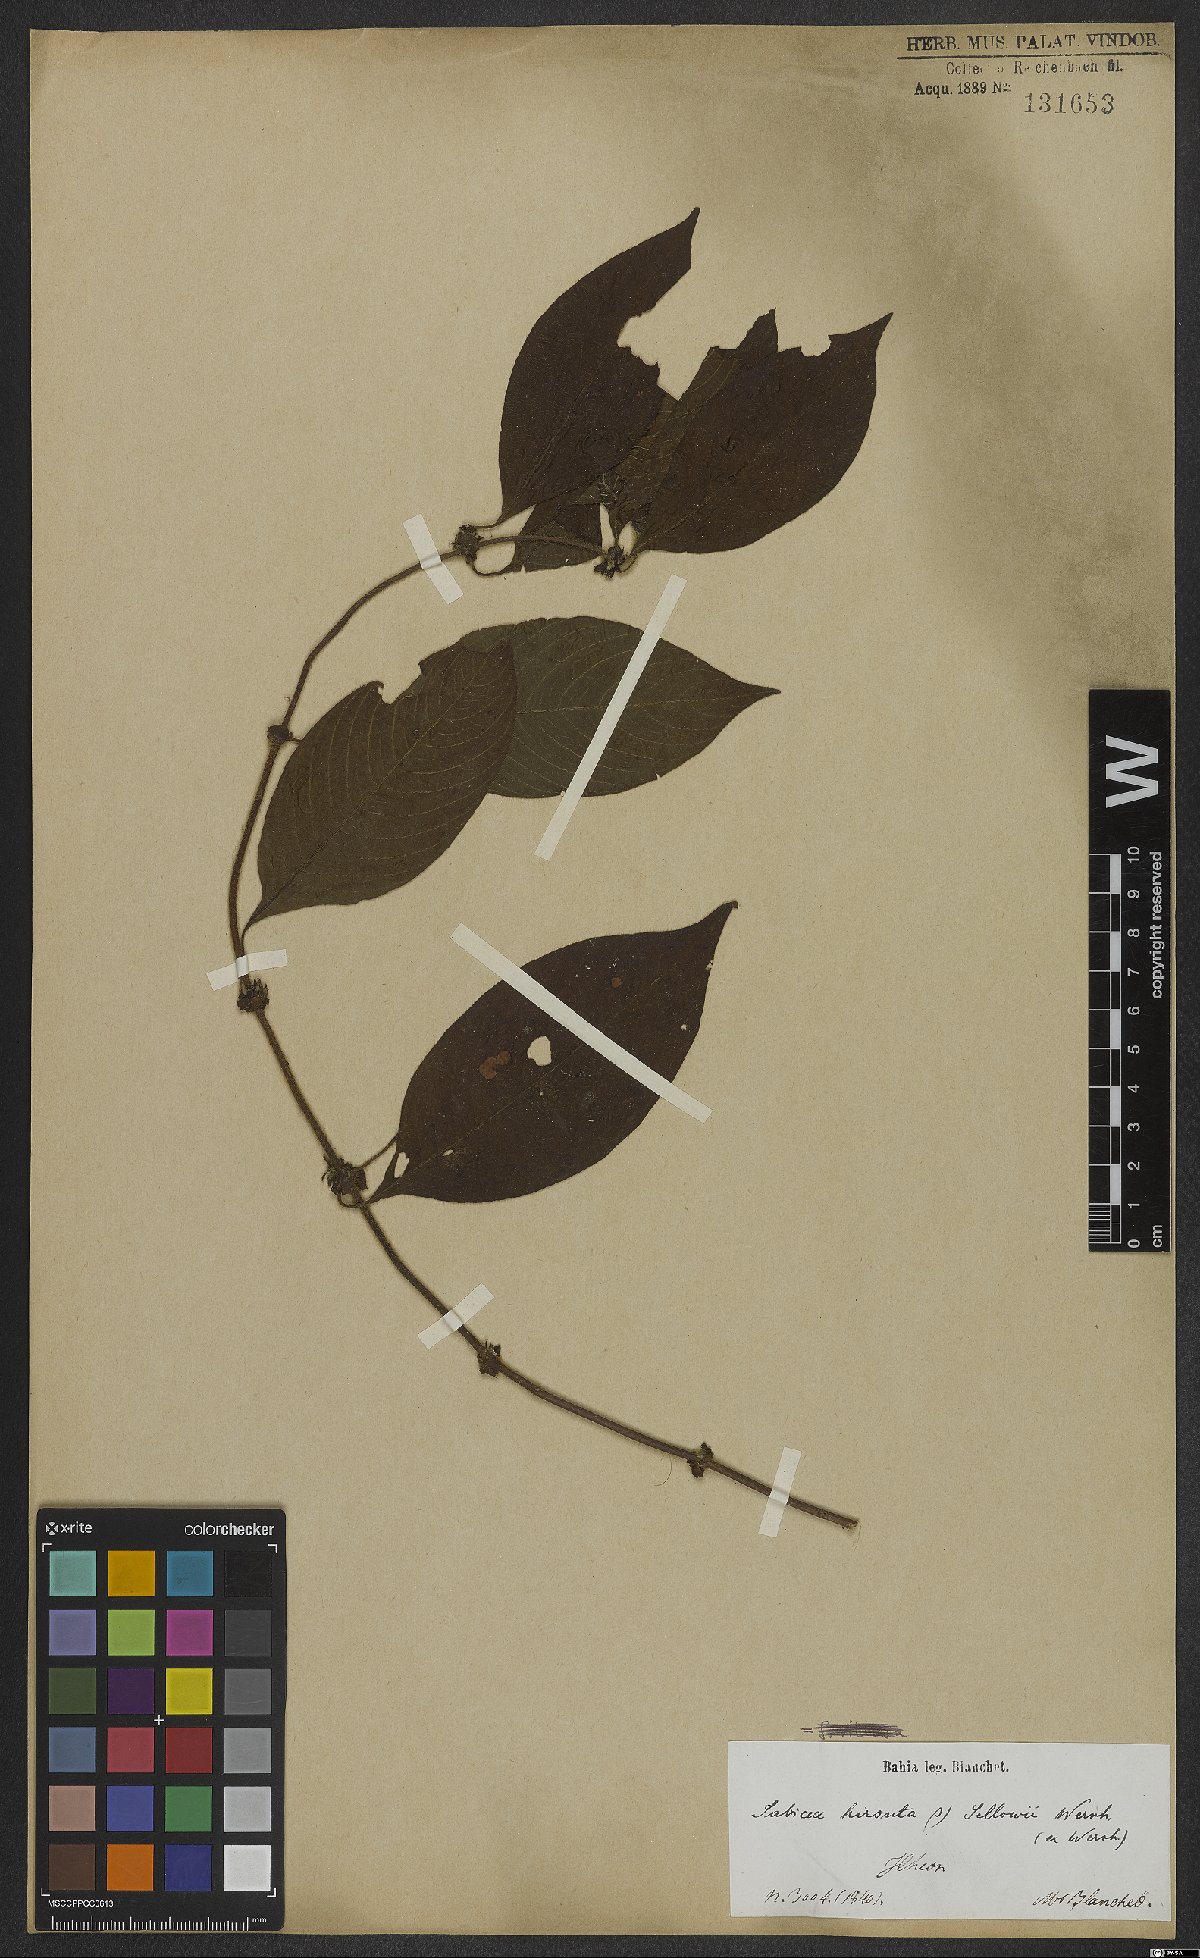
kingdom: Plantae
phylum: Tracheophyta
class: Magnoliopsida
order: Gentianales
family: Rubiaceae
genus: Sabicea
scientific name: Sabicea villosa
